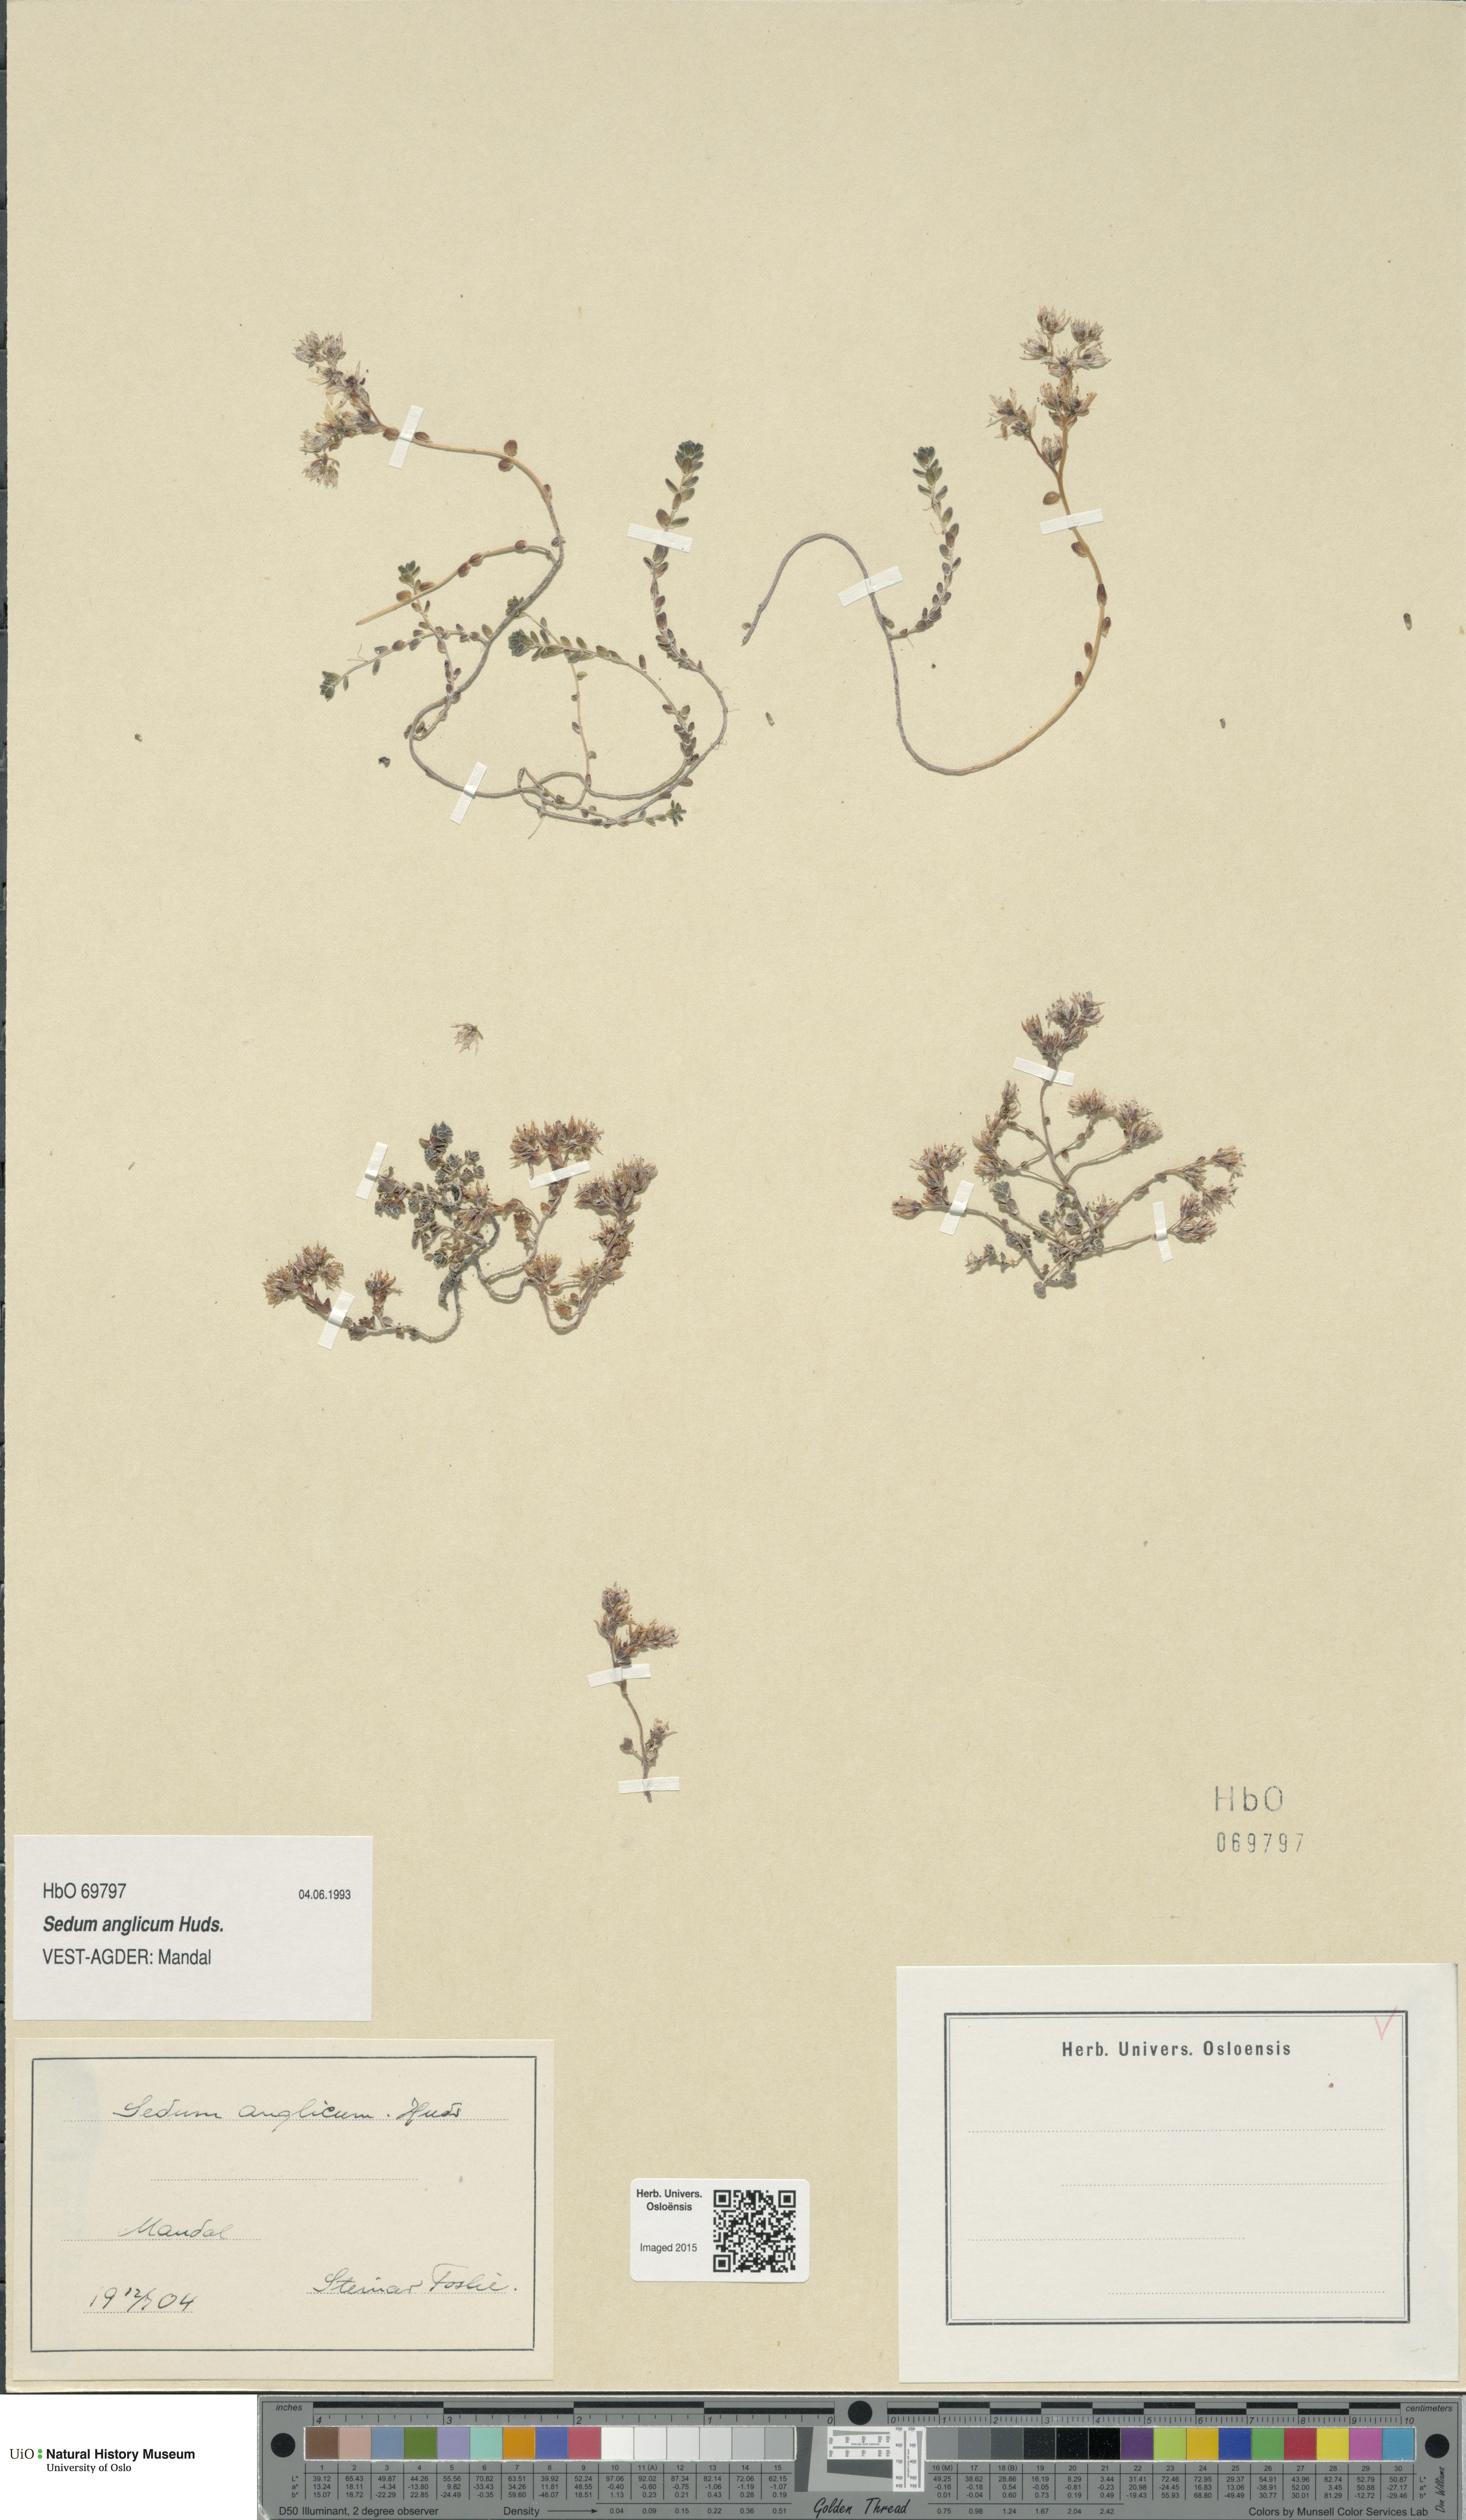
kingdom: Plantae
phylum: Tracheophyta
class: Magnoliopsida
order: Saxifragales
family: Crassulaceae
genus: Sedum
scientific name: Sedum anglicum
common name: English stonecrop
